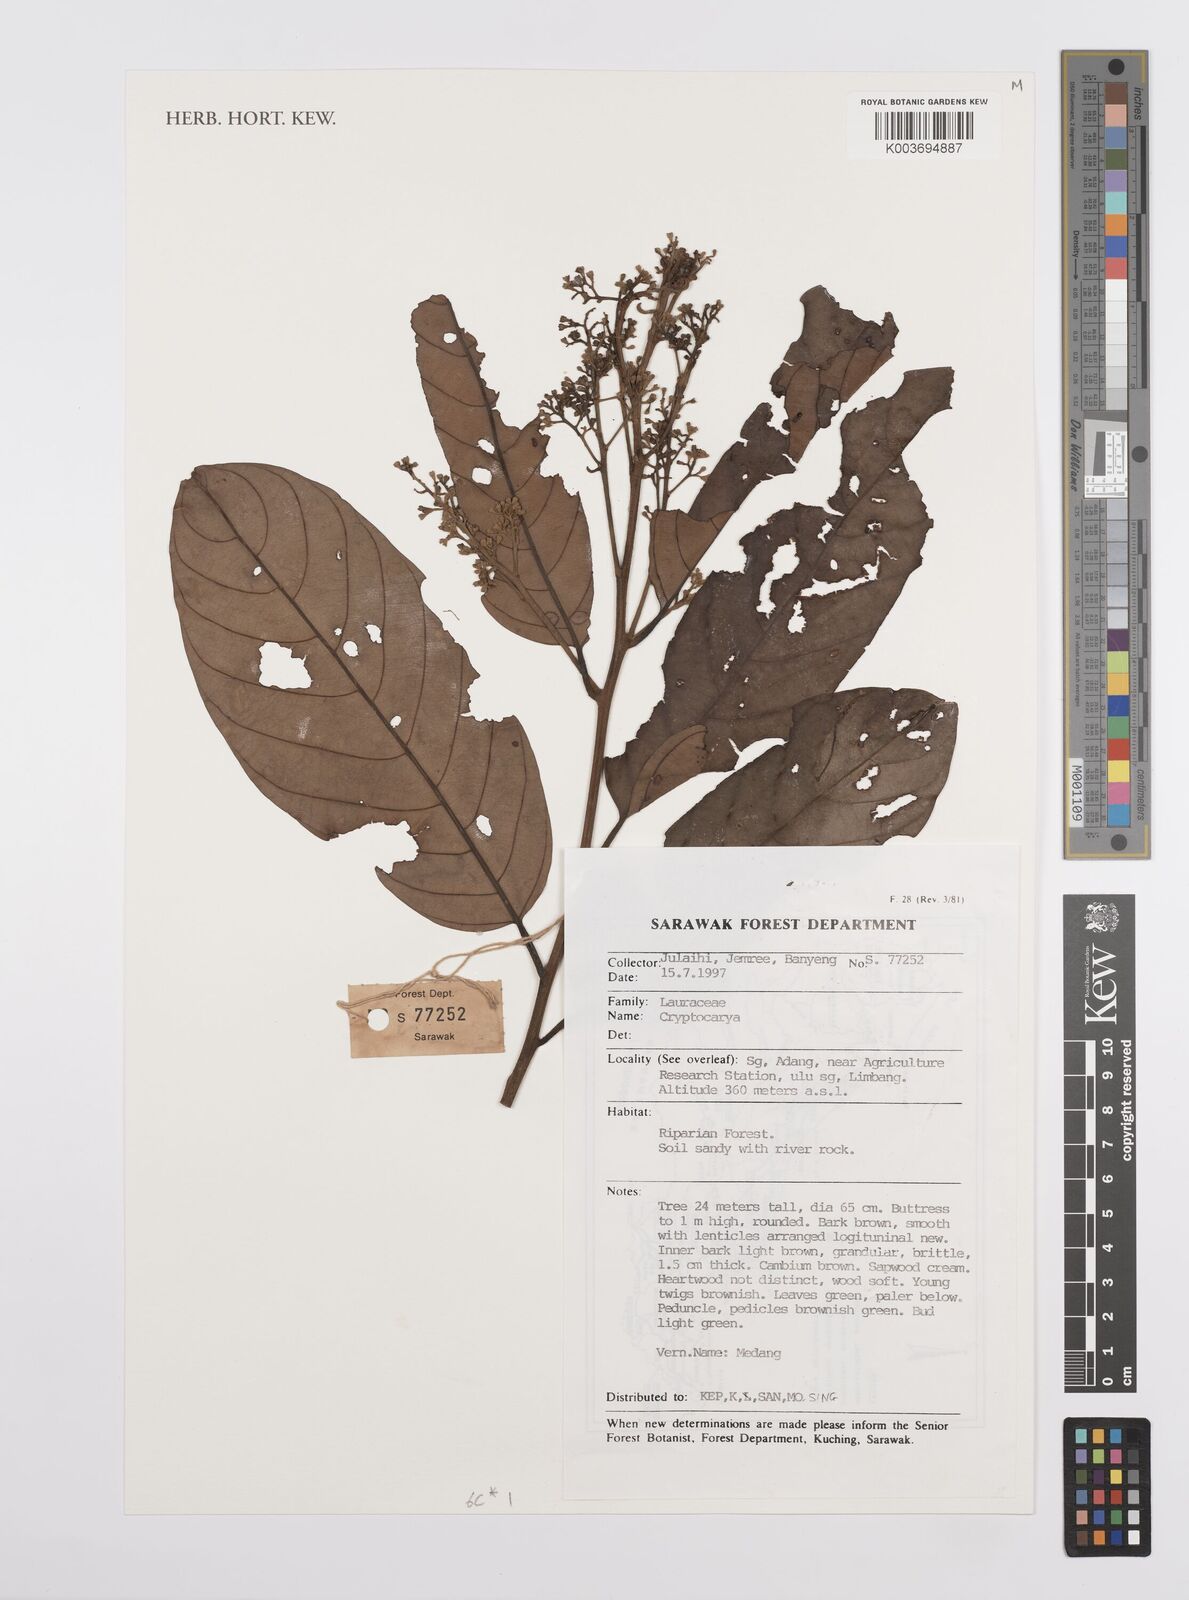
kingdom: Plantae
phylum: Tracheophyta
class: Magnoliopsida
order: Laurales
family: Lauraceae
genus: Cryptocarya
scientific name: Cryptocarya
